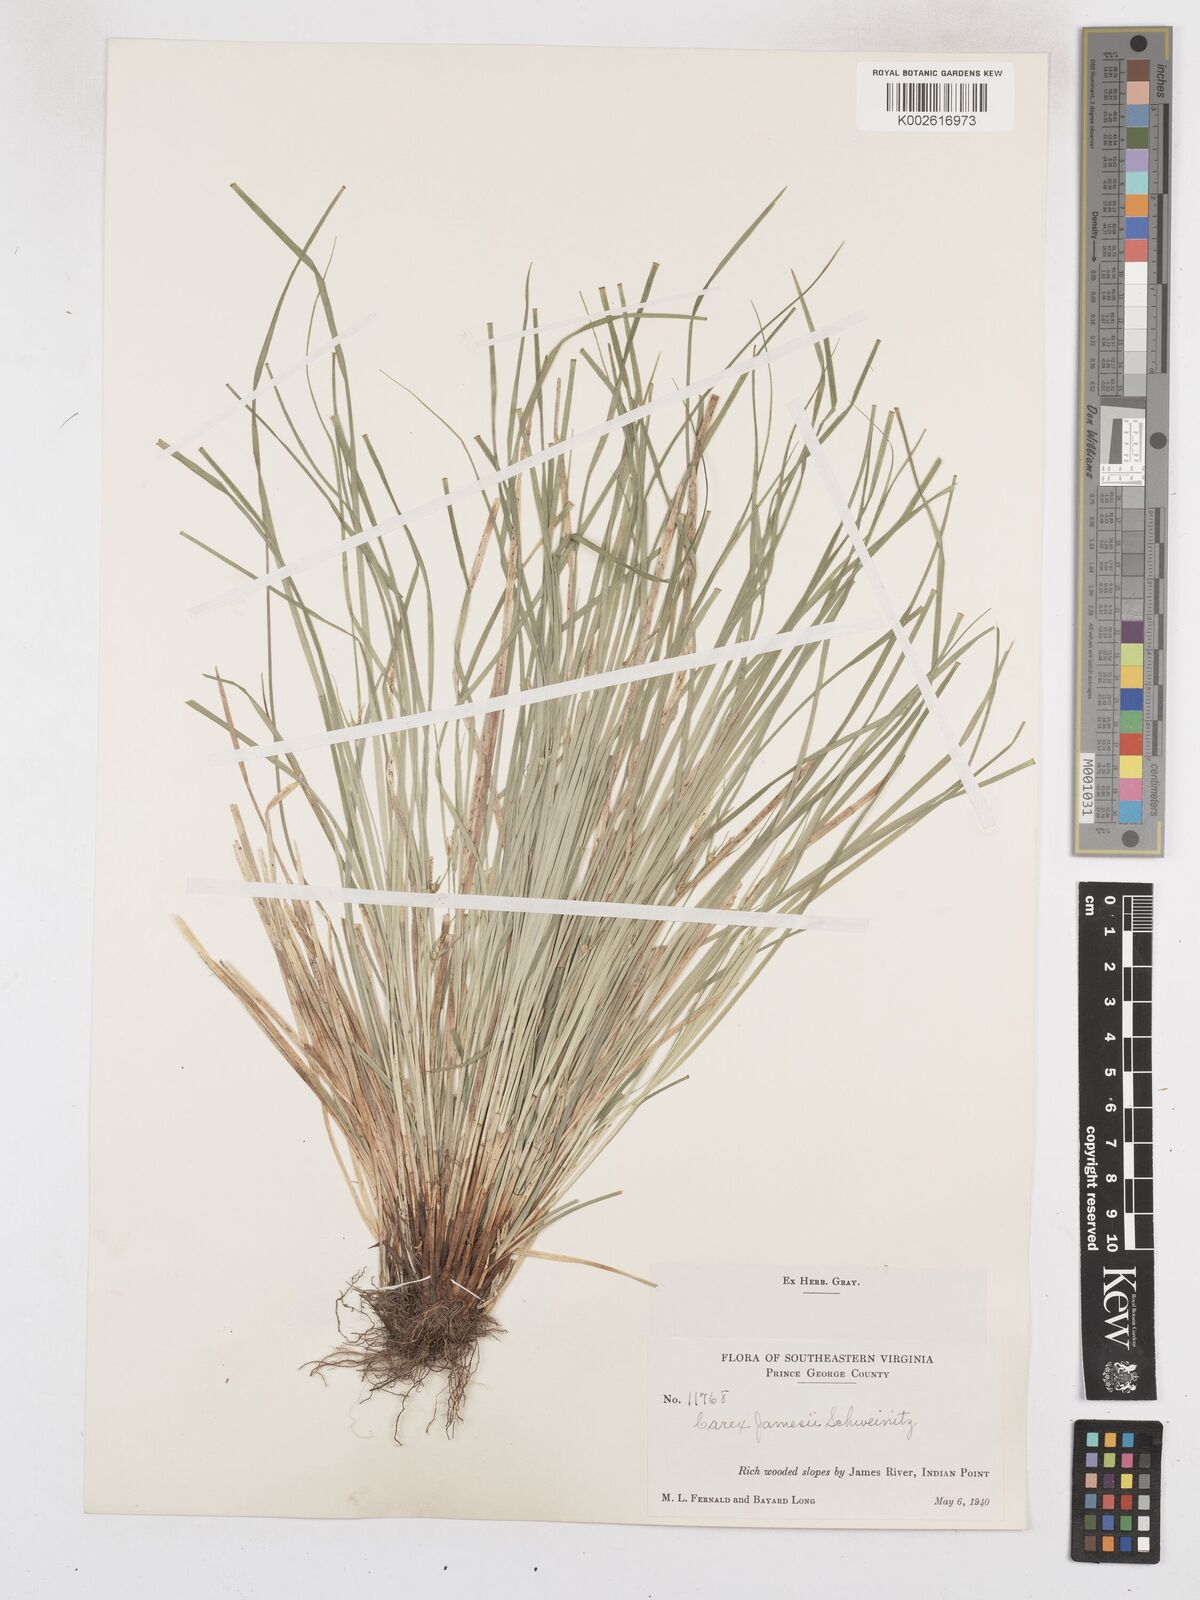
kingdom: Plantae
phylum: Tracheophyta
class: Liliopsida
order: Poales
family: Cyperaceae
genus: Carex
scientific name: Carex jamesii
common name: Grass sedge
